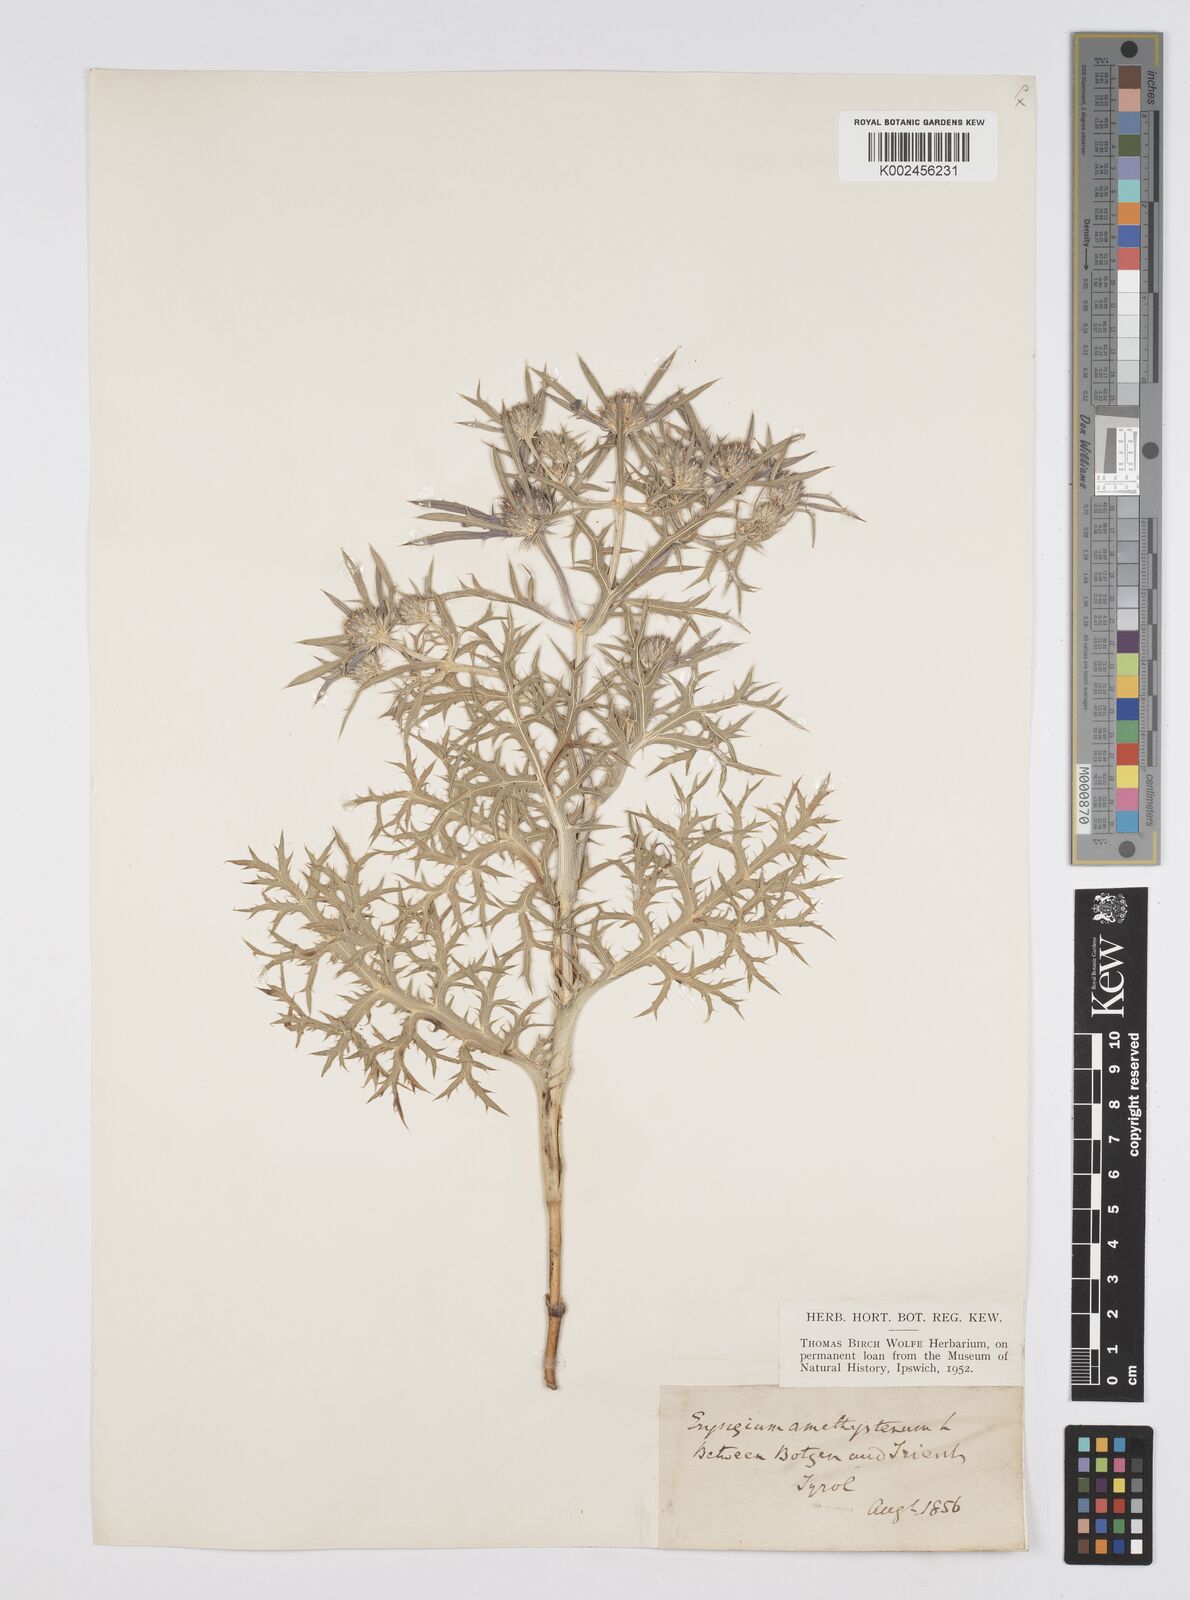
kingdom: Plantae
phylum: Tracheophyta
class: Magnoliopsida
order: Apiales
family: Apiaceae
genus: Eryngium
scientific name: Eryngium amethystinum
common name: Amethyst eryngo
